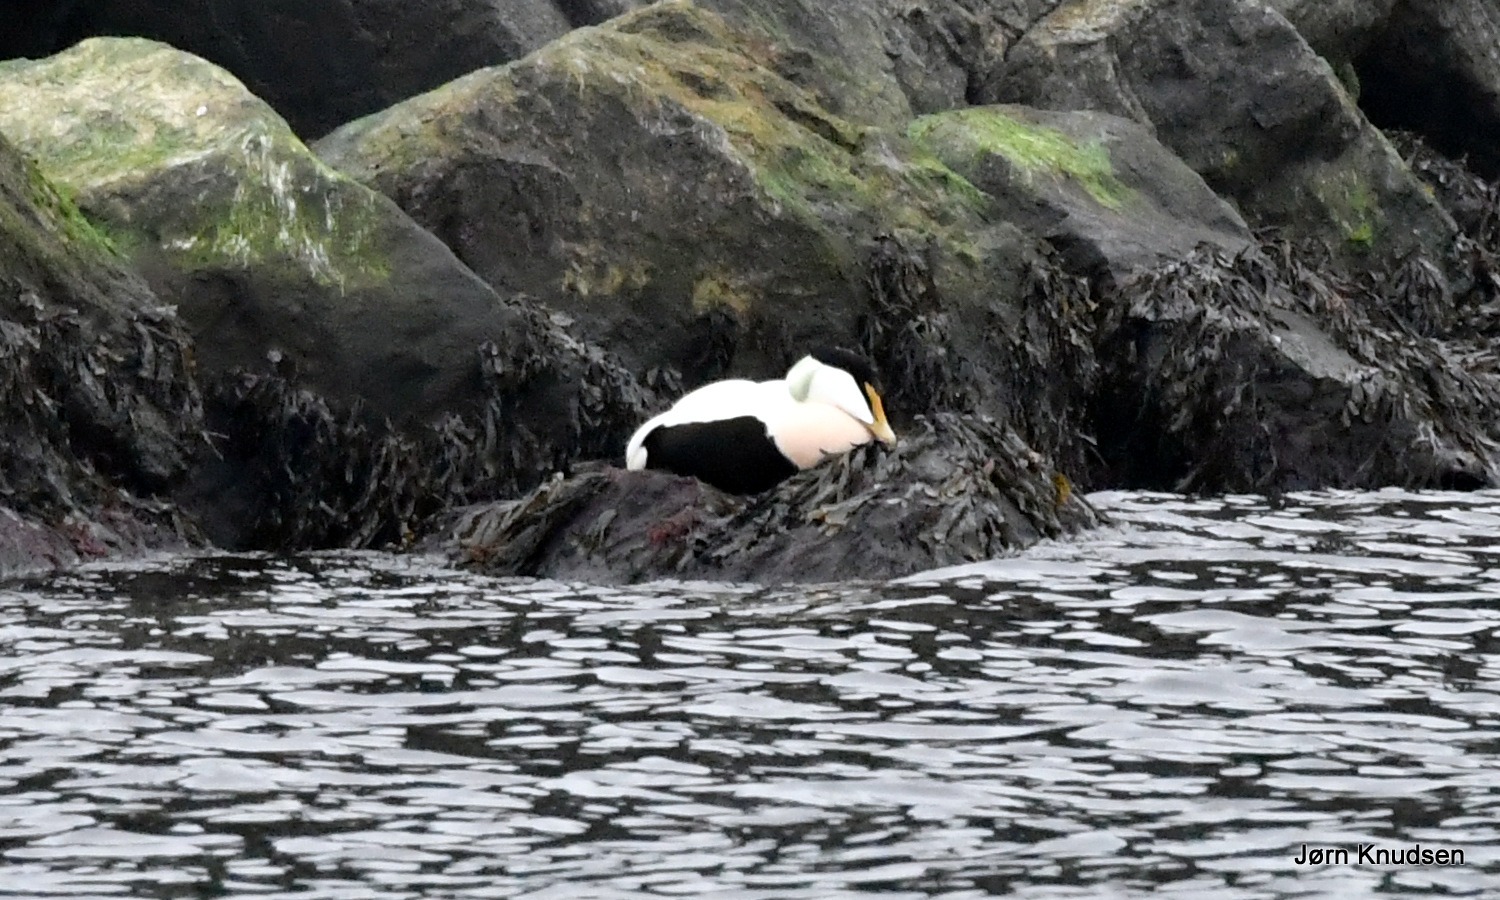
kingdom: Animalia
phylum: Chordata
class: Aves
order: Anseriformes
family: Anatidae
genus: Somateria
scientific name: Somateria mollissima
